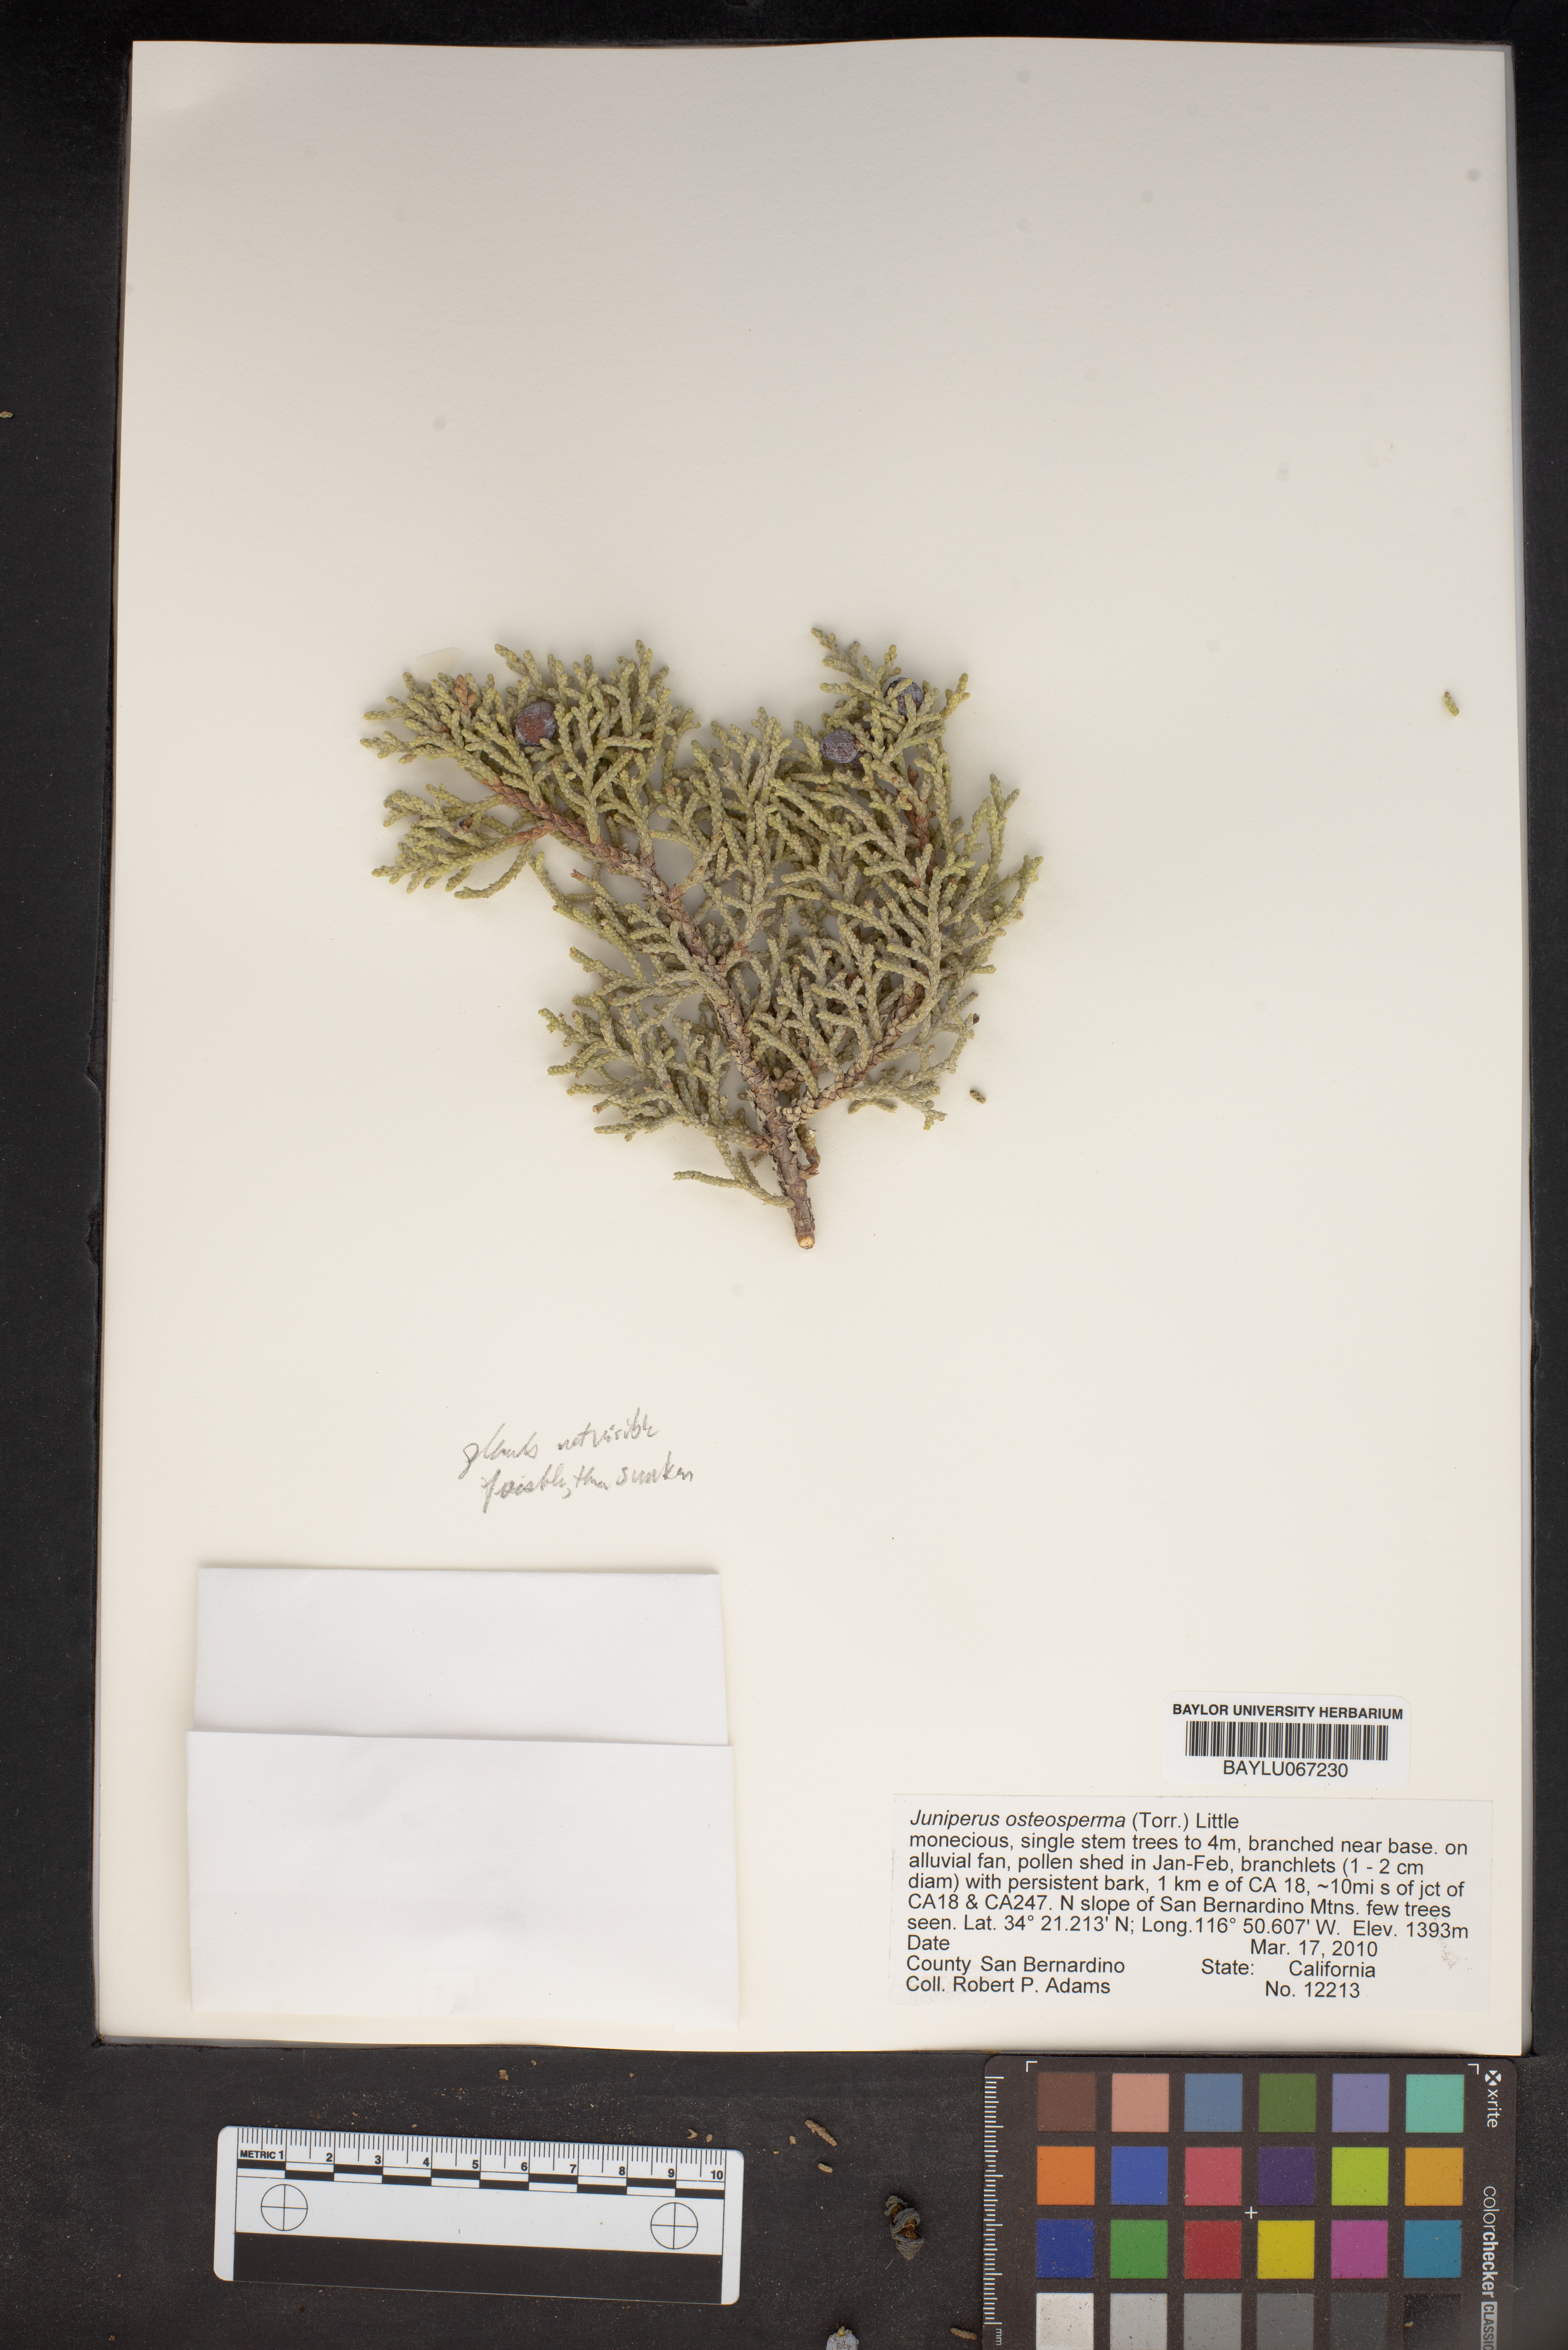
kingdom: Plantae
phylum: Tracheophyta
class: Pinopsida
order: Pinales
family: Cupressaceae
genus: Juniperus
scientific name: Juniperus osteosperma
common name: Utah juniper
